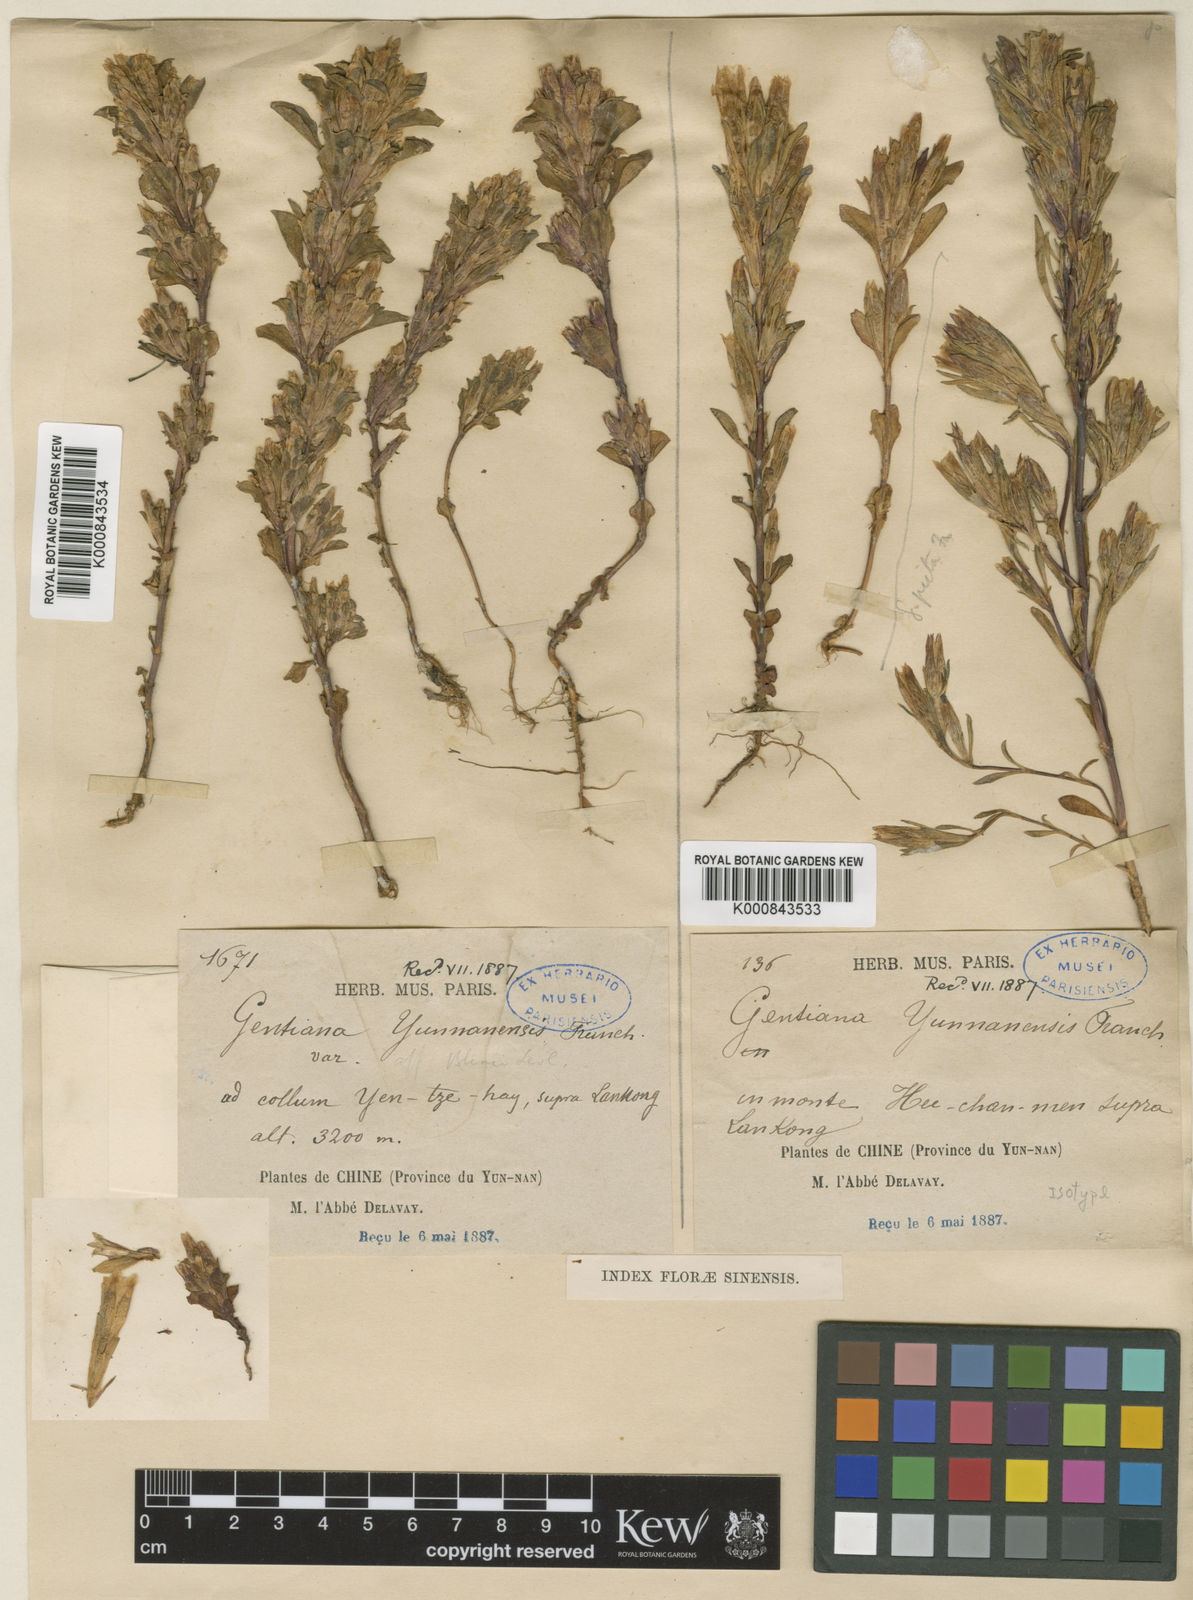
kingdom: Plantae
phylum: Tracheophyta
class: Magnoliopsida
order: Gentianales
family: Gentianaceae
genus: Gentiana
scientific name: Gentiana yunnanensis
